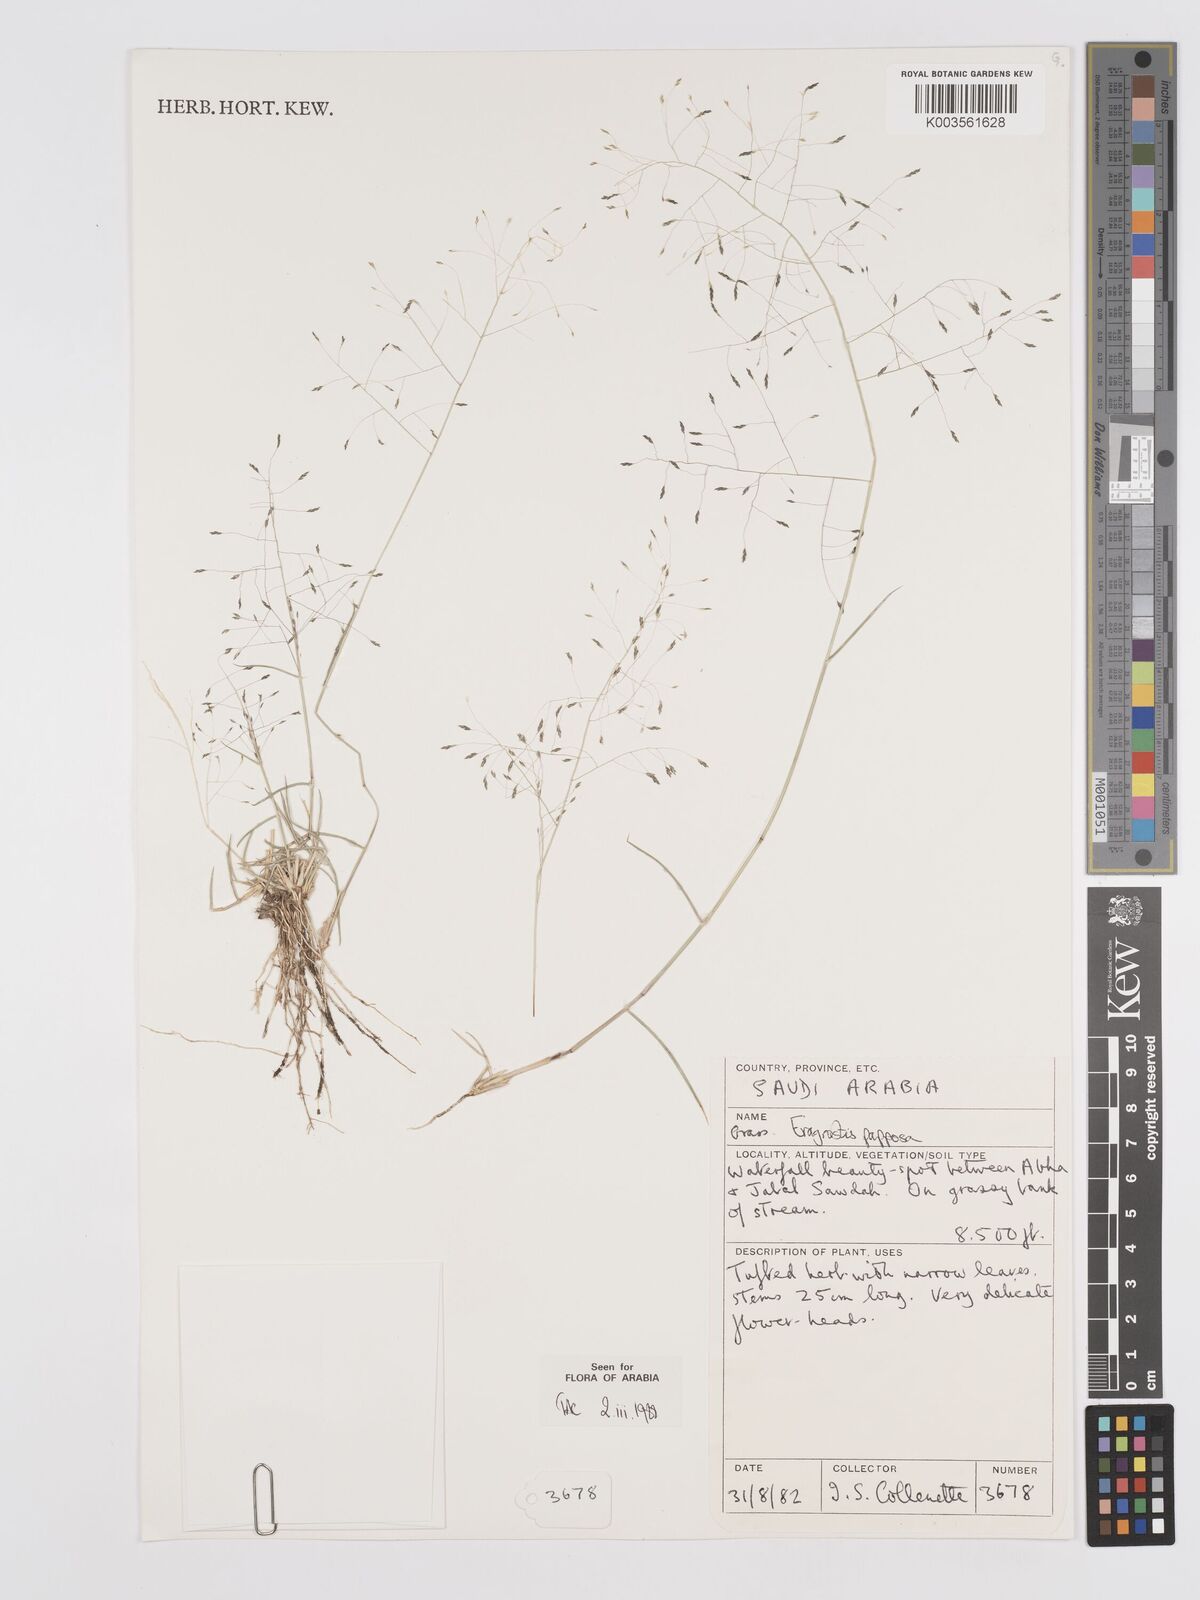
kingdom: Plantae
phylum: Tracheophyta
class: Liliopsida
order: Poales
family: Poaceae
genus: Eragrostis
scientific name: Eragrostis papposa
